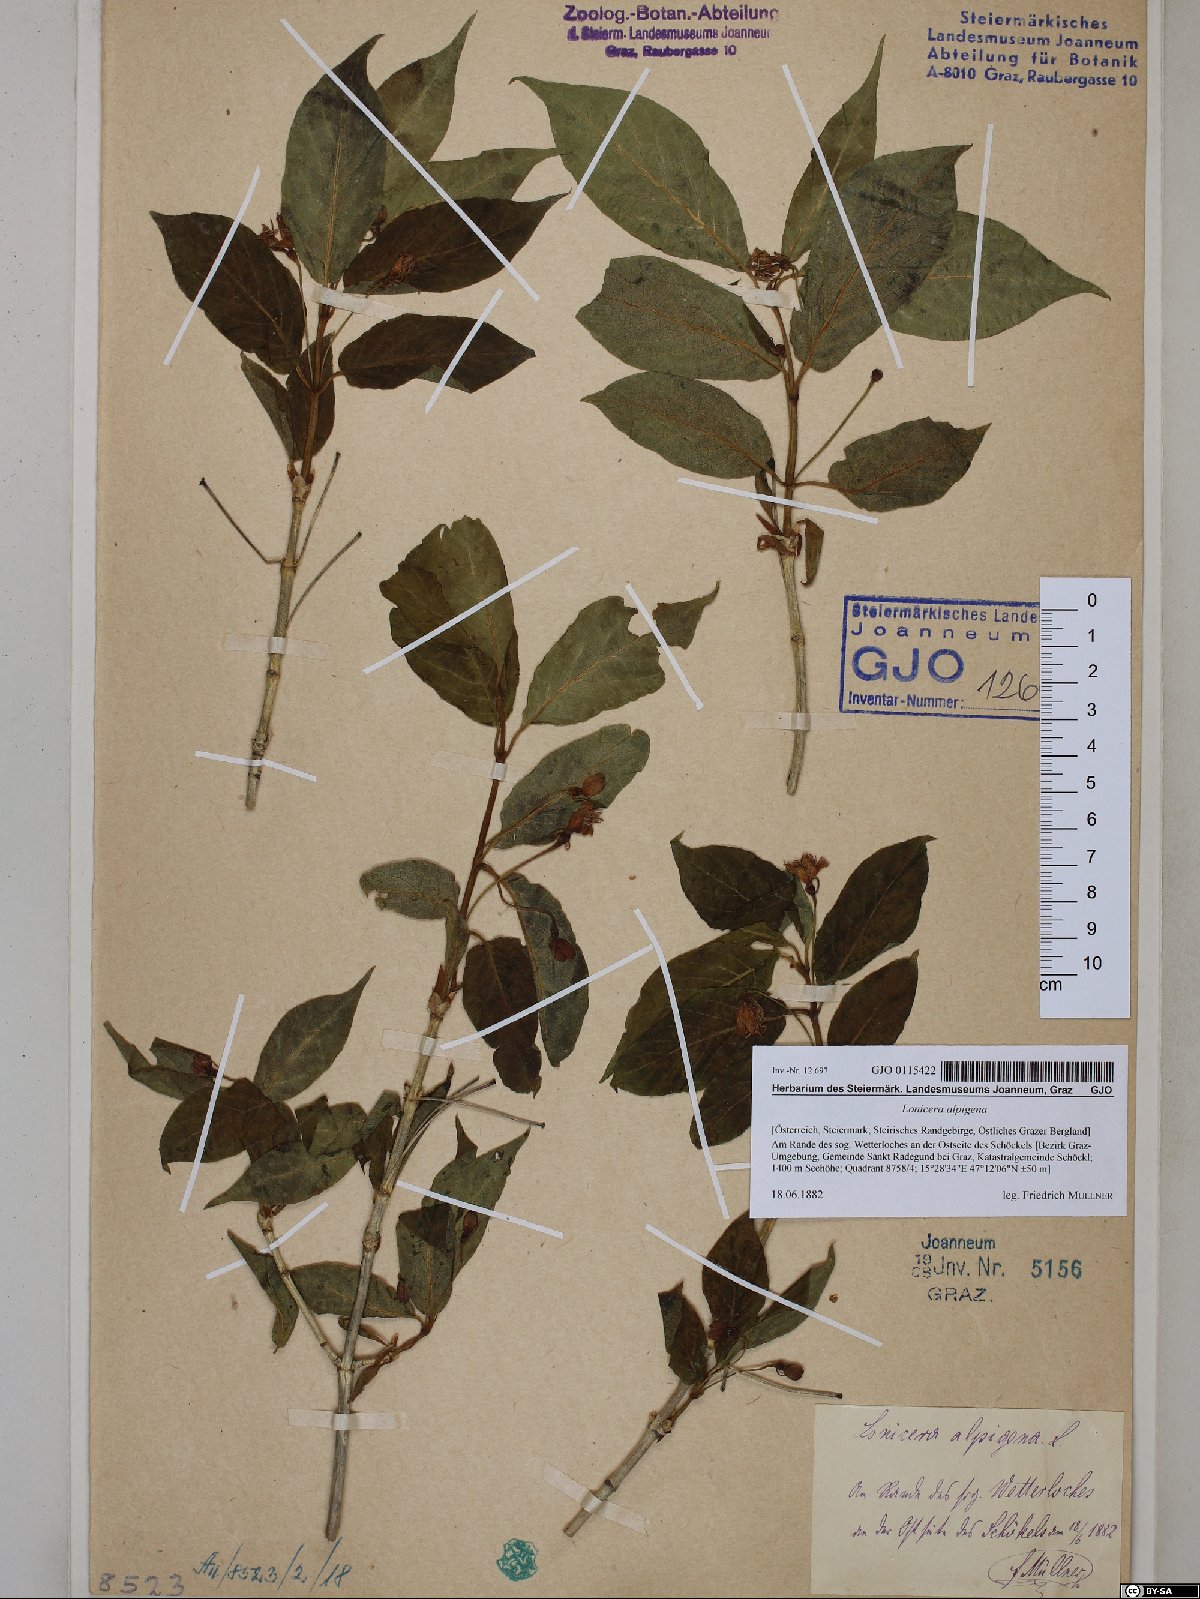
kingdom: Plantae
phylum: Tracheophyta
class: Magnoliopsida
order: Dipsacales
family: Caprifoliaceae
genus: Lonicera
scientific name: Lonicera alpigena
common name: Alpine honeysuckle
